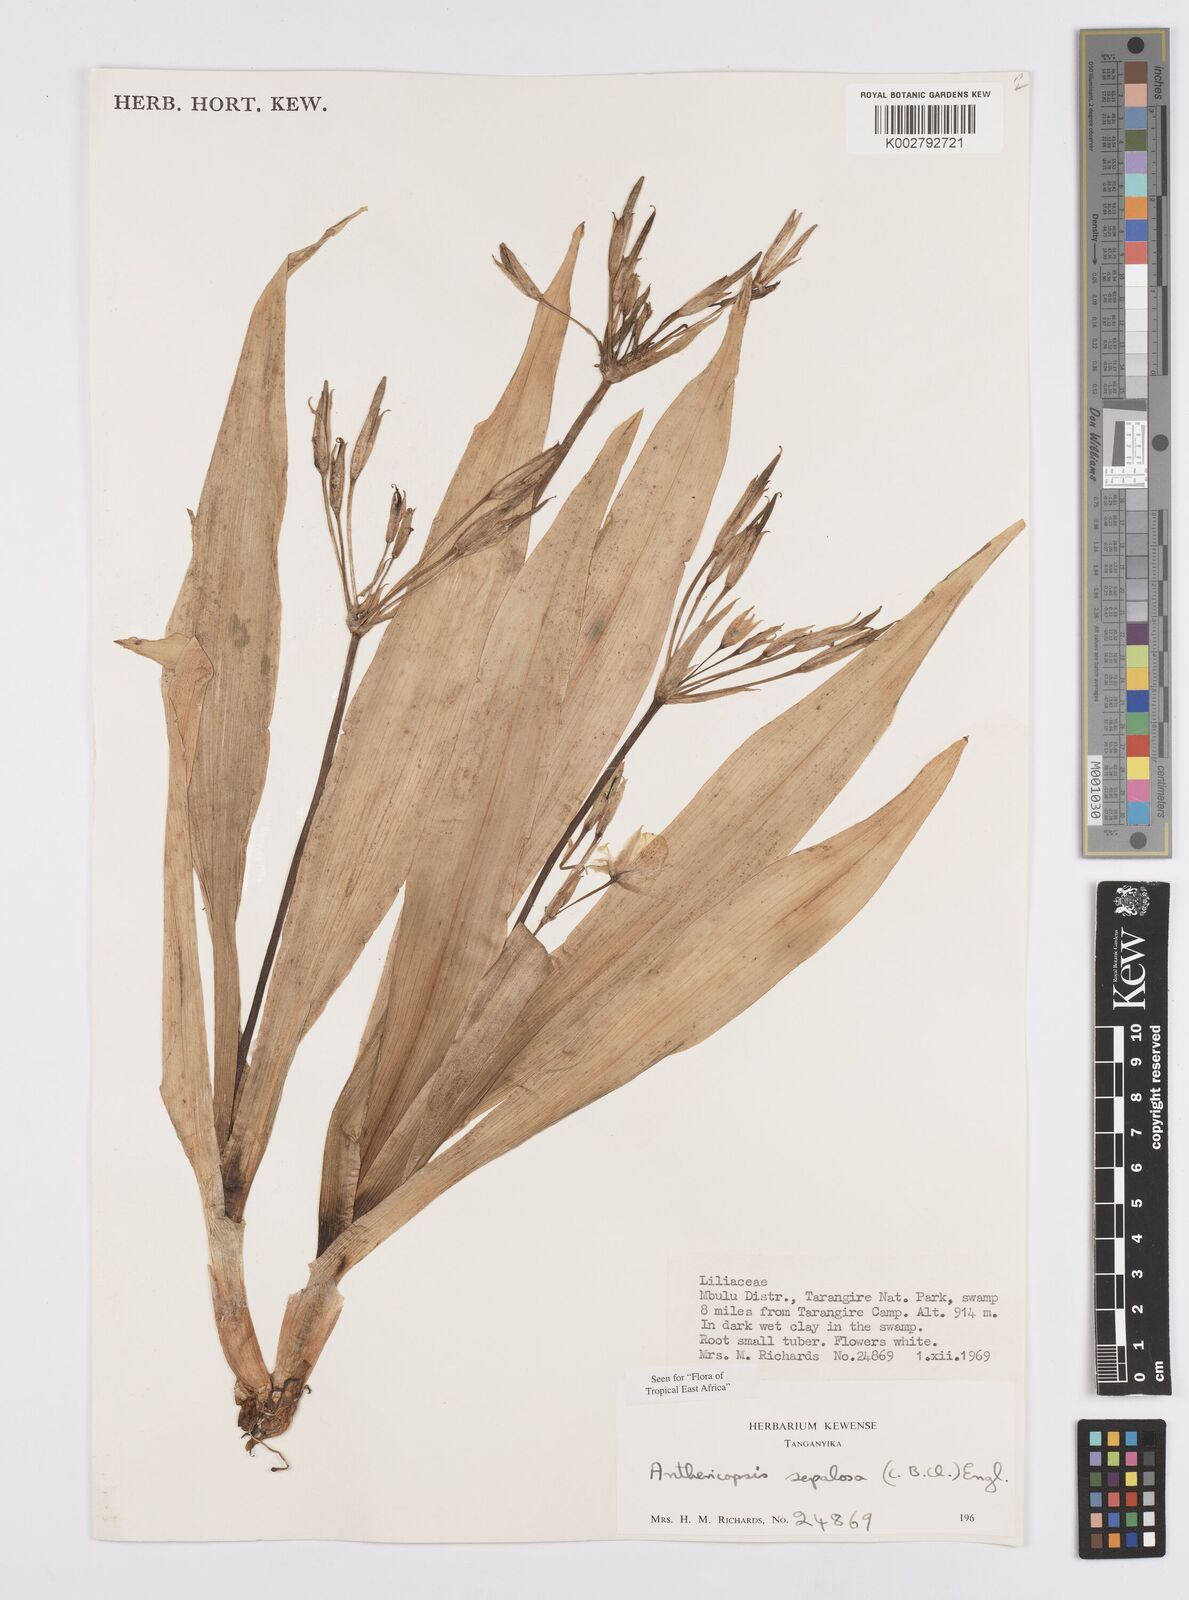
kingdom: Plantae
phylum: Tracheophyta
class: Liliopsida
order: Commelinales
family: Commelinaceae
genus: Anthericopsis
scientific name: Anthericopsis sepalosa
